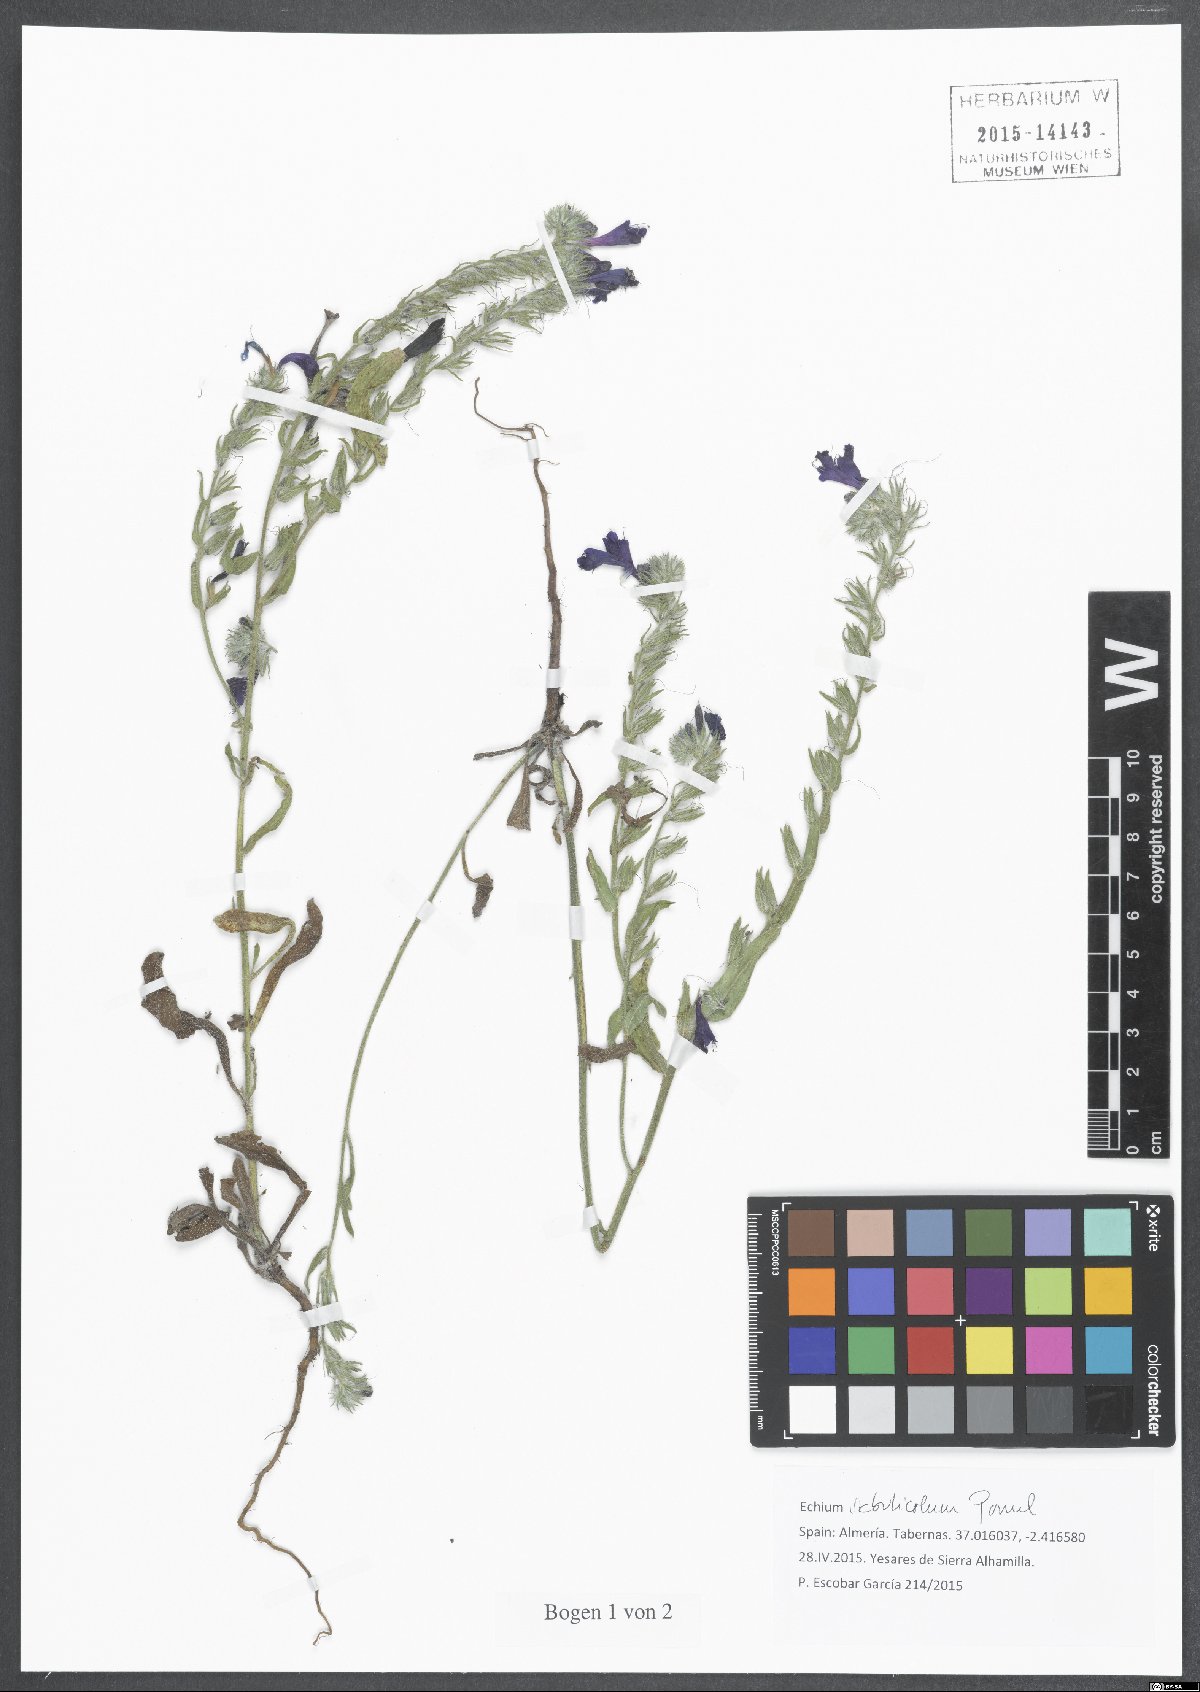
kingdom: Plantae
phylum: Tracheophyta
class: Magnoliopsida
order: Boraginales
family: Boraginaceae
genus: Echium
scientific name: Echium sabulicola
